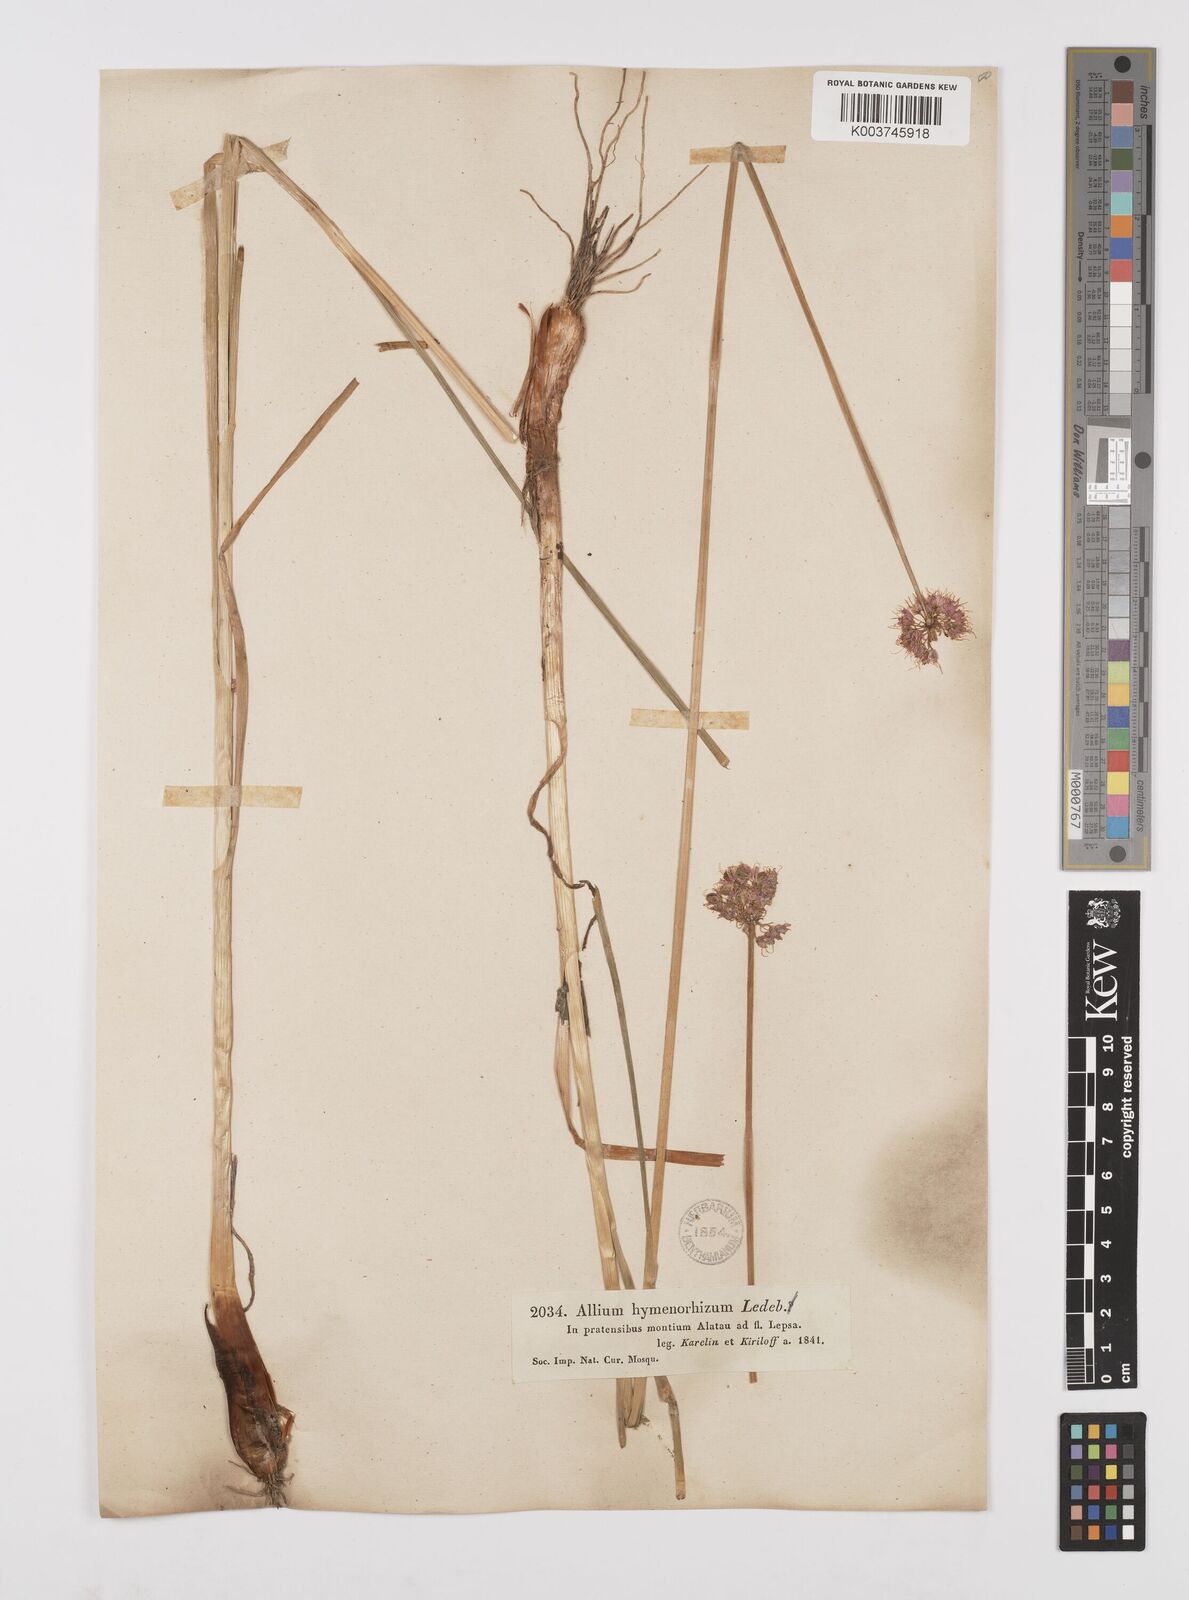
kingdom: Plantae
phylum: Tracheophyta
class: Liliopsida
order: Asparagales
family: Amaryllidaceae
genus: Allium
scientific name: Allium hymenorhizum
